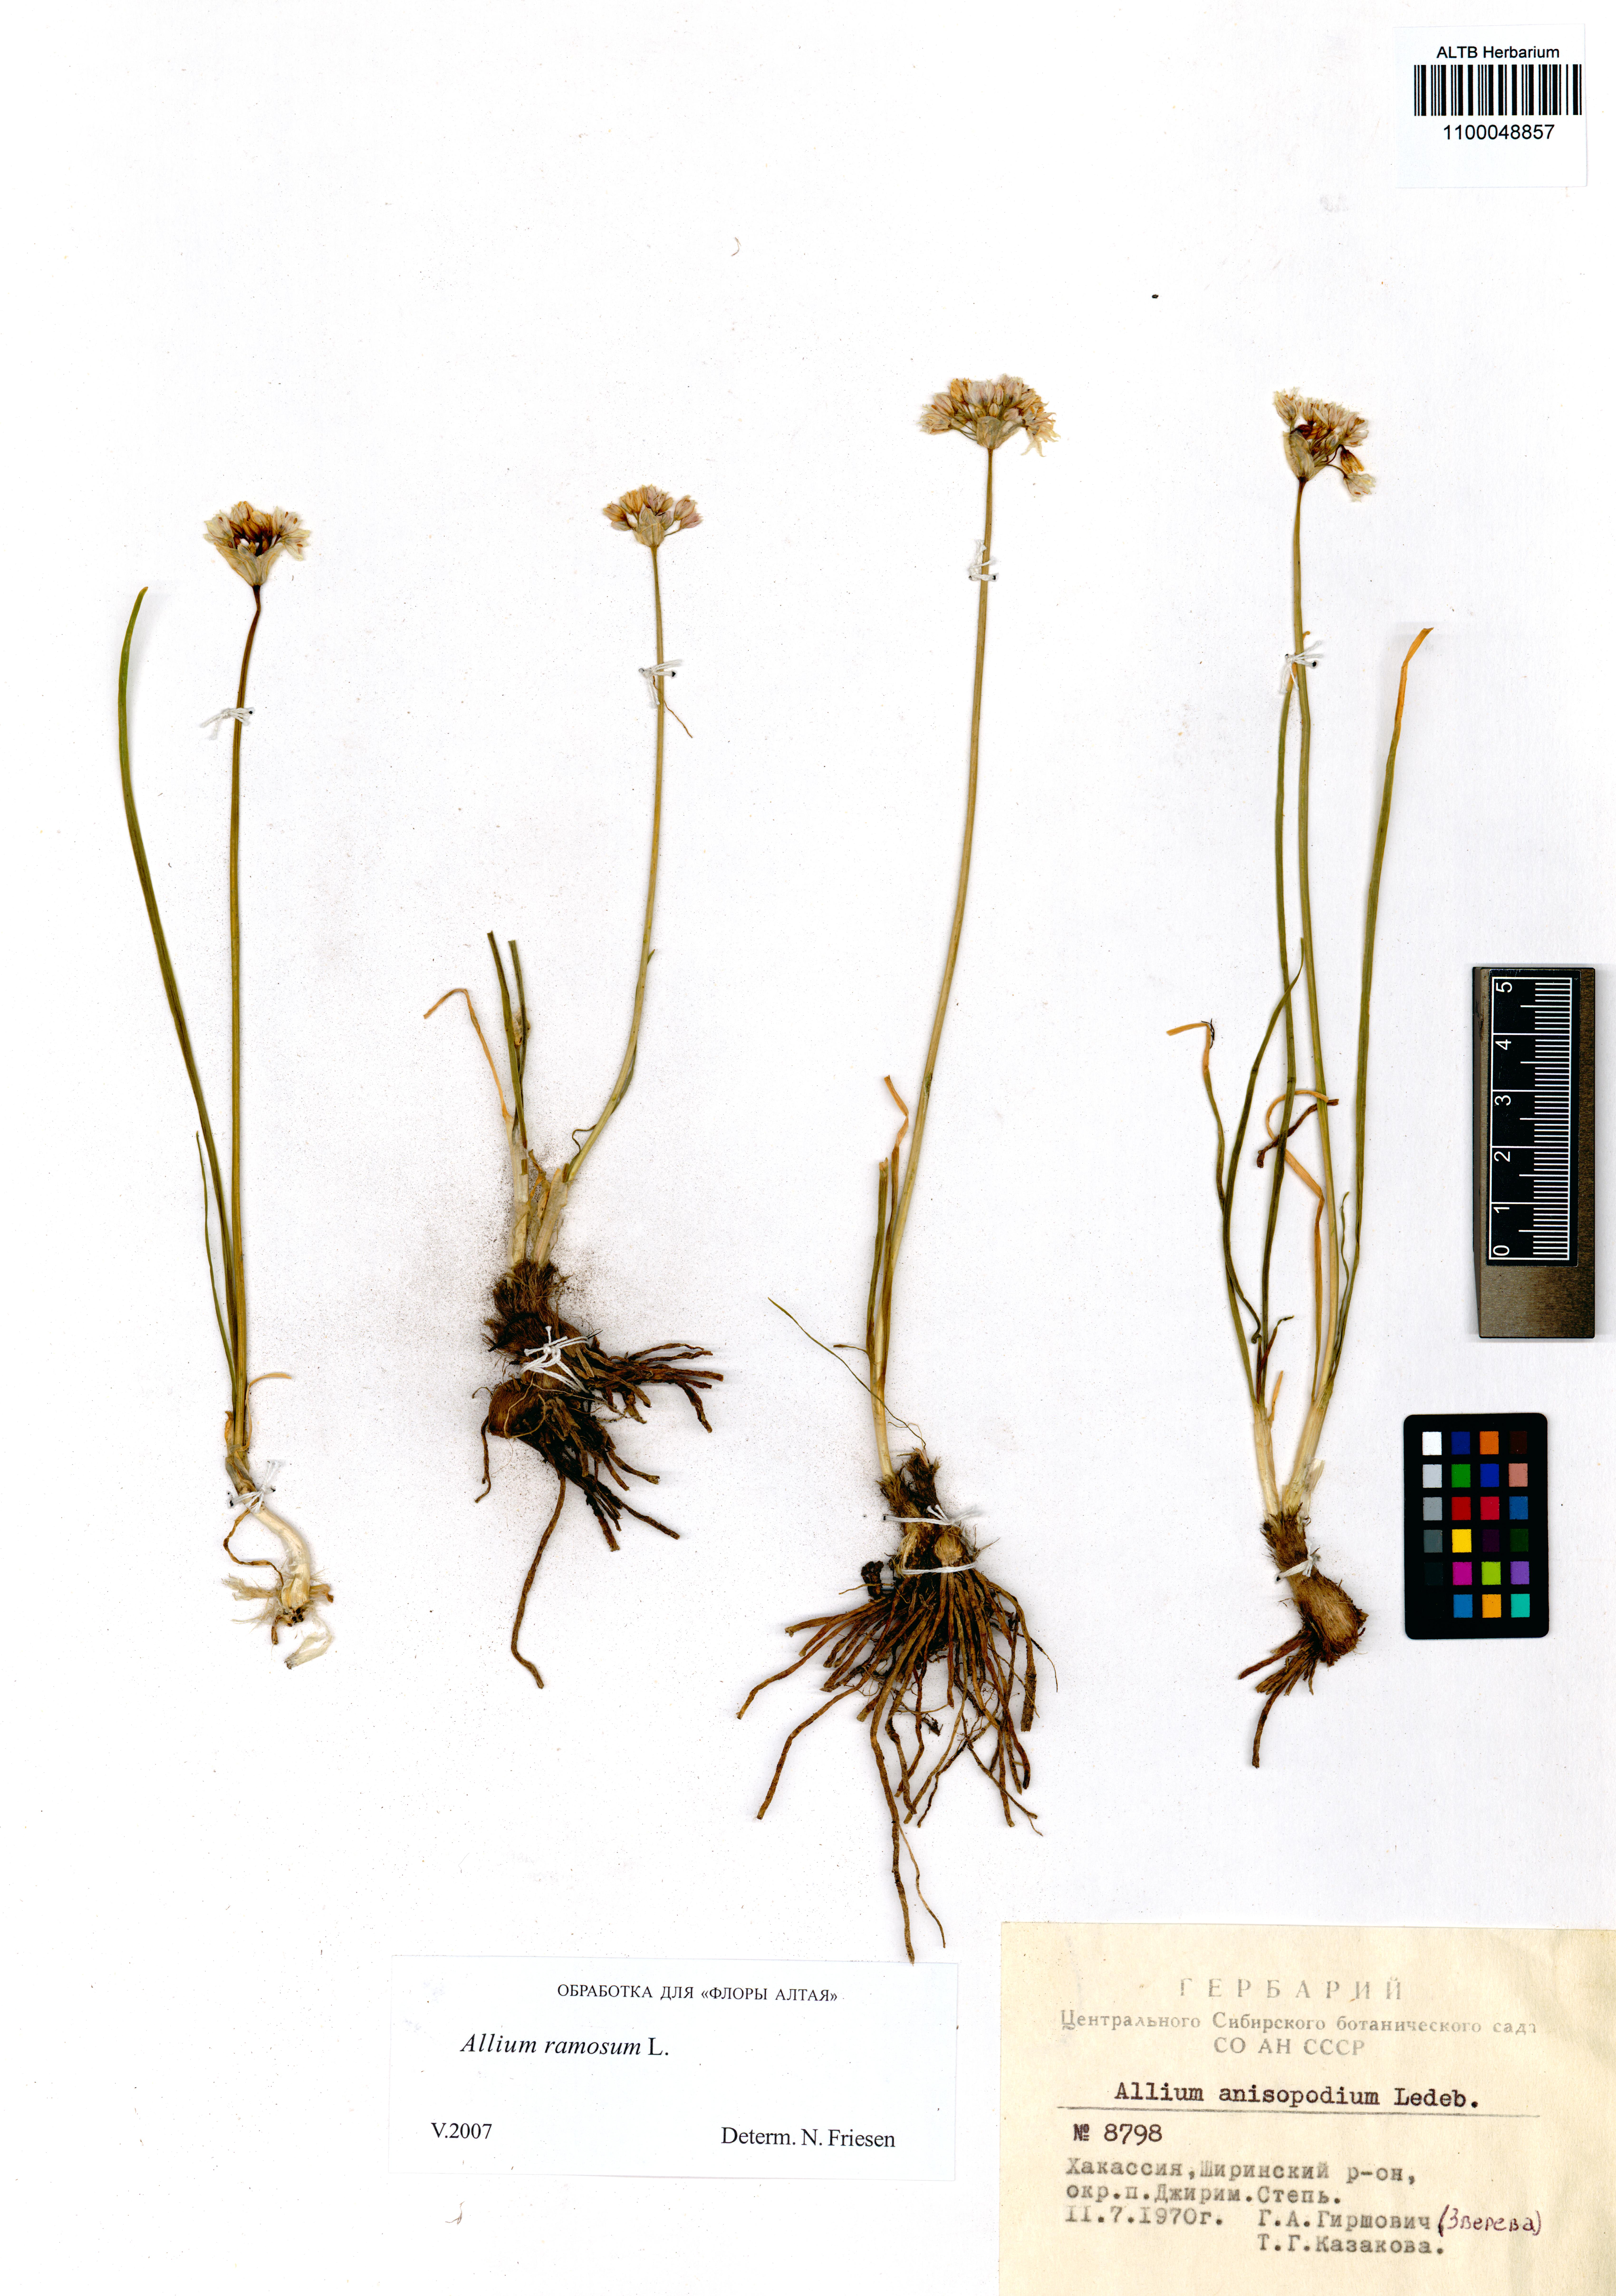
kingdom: Plantae
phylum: Tracheophyta
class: Liliopsida
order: Asparagales
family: Amaryllidaceae
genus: Allium
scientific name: Allium ramosum
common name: Fragrant garlic
